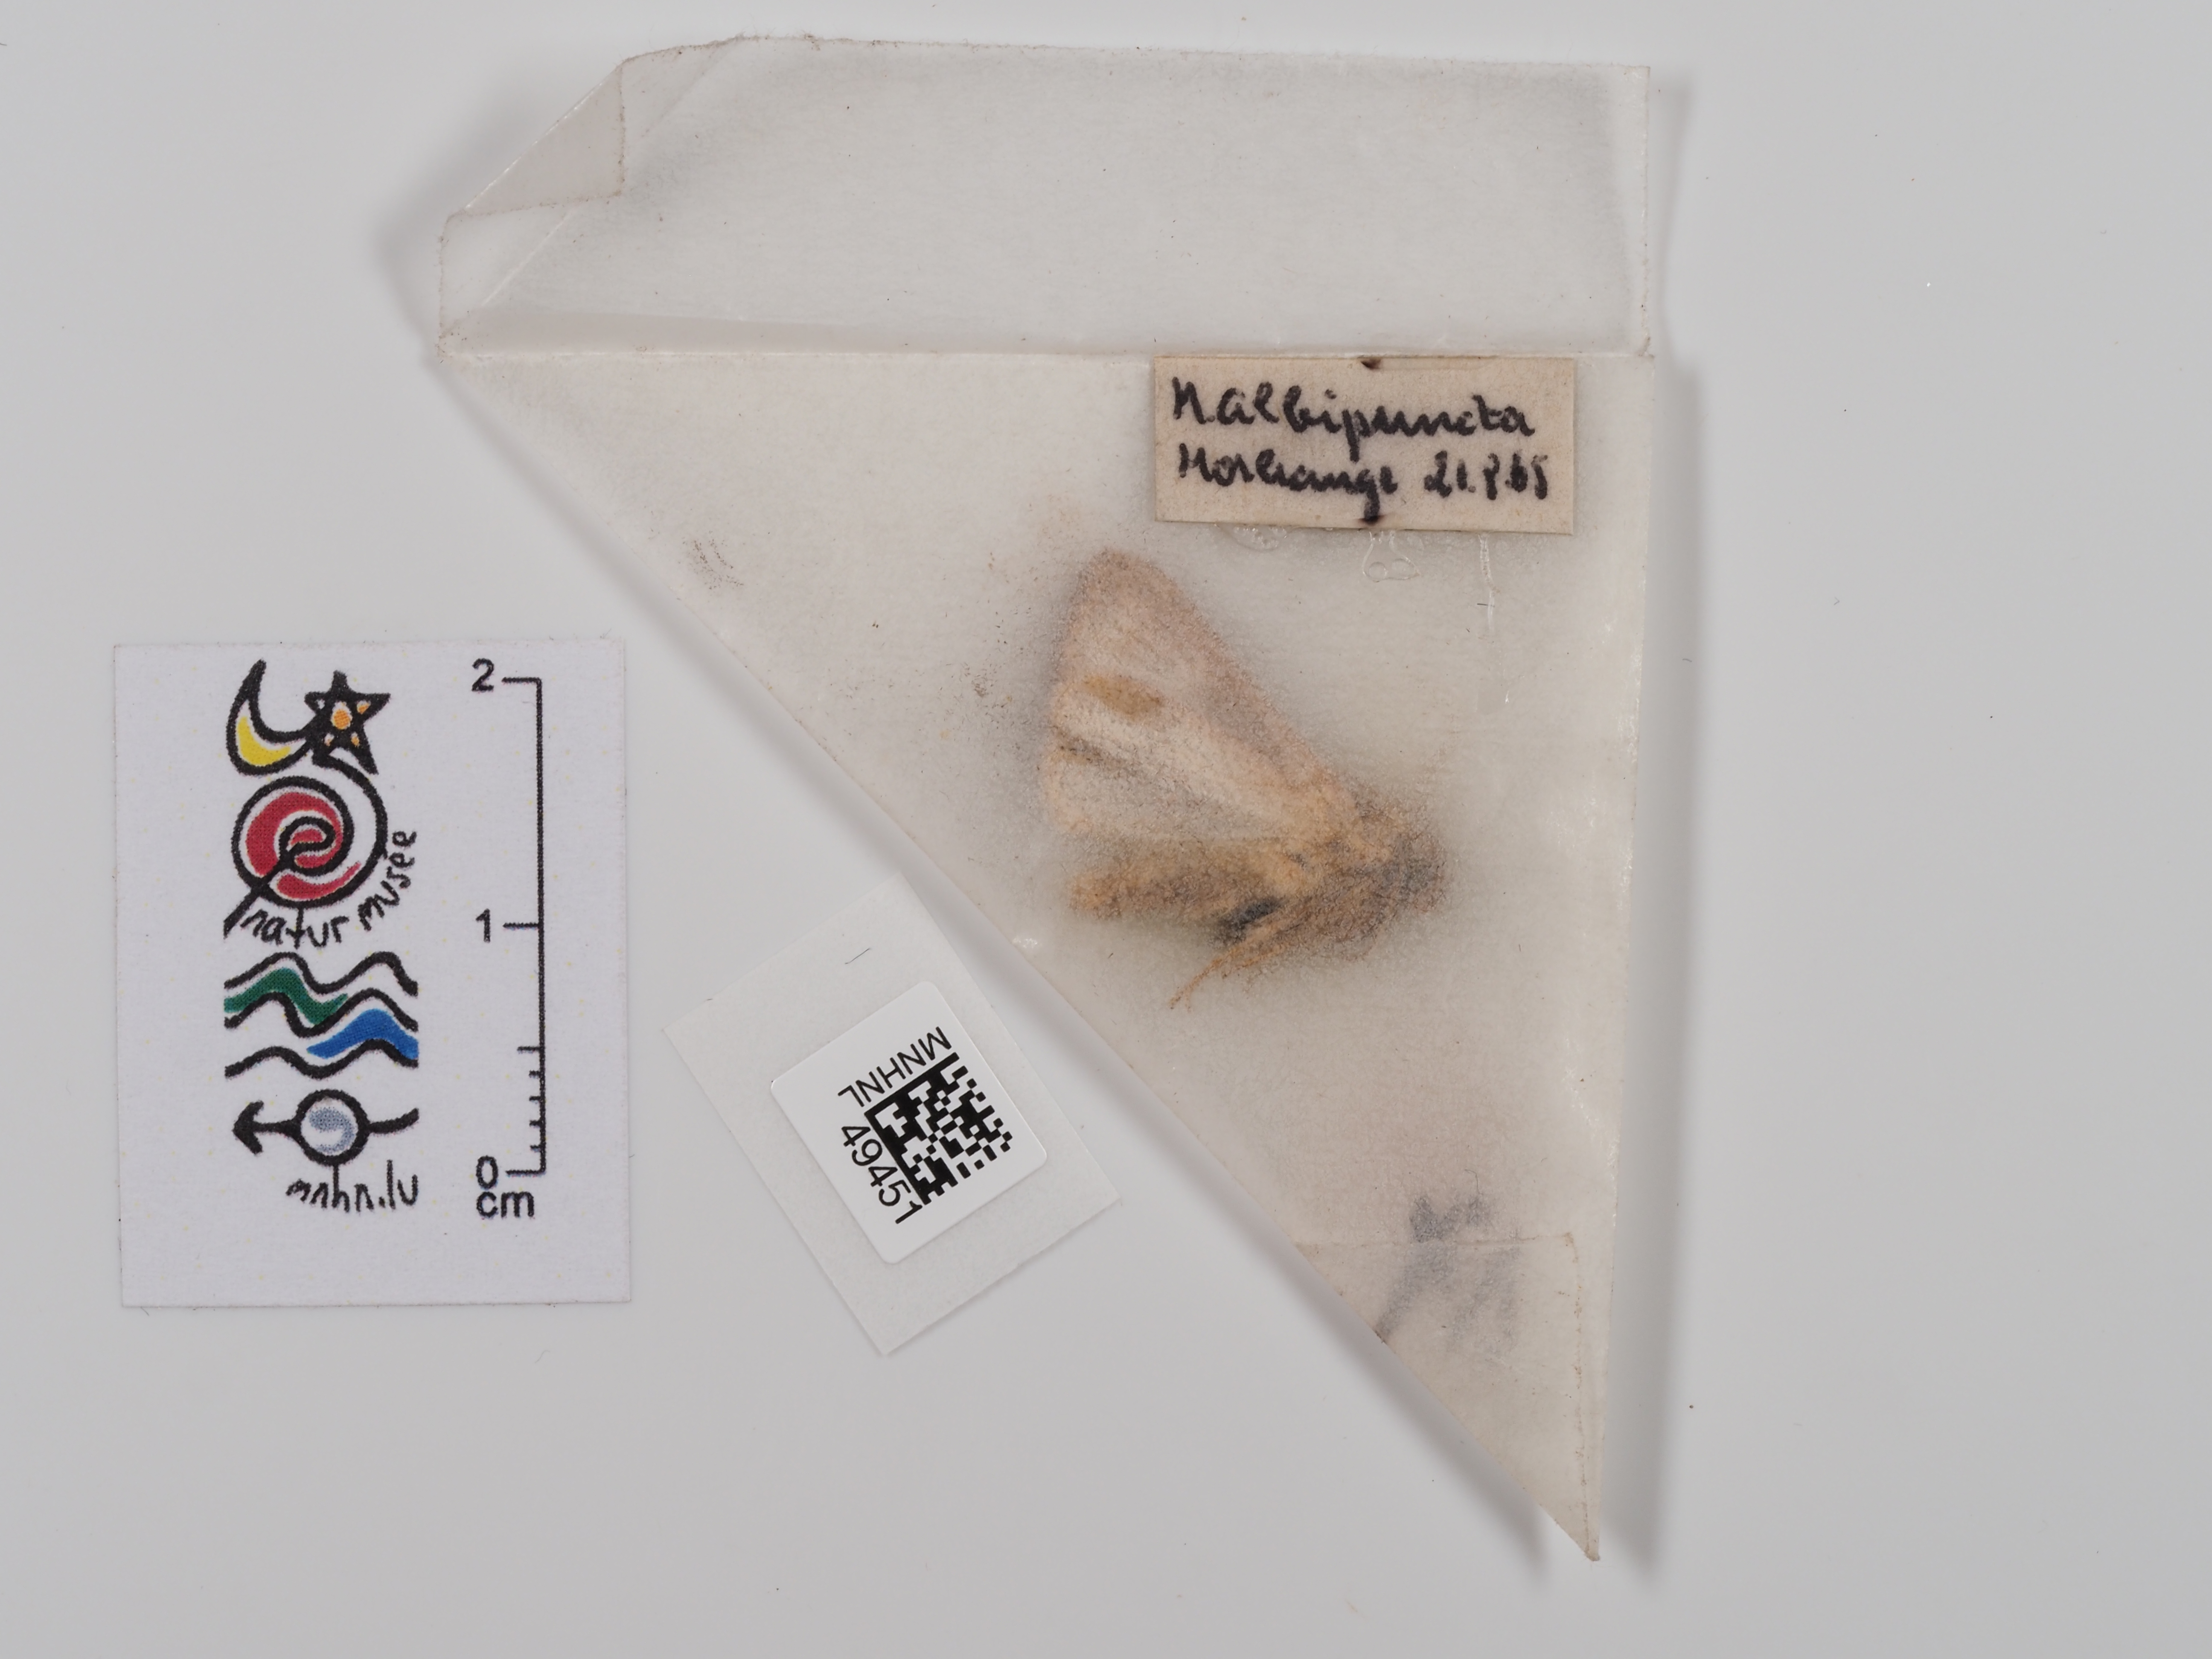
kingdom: Animalia
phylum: Arthropoda
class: Insecta
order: Lepidoptera
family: Noctuidae
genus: Mythimna
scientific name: Mythimna albipuncta
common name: White-point
